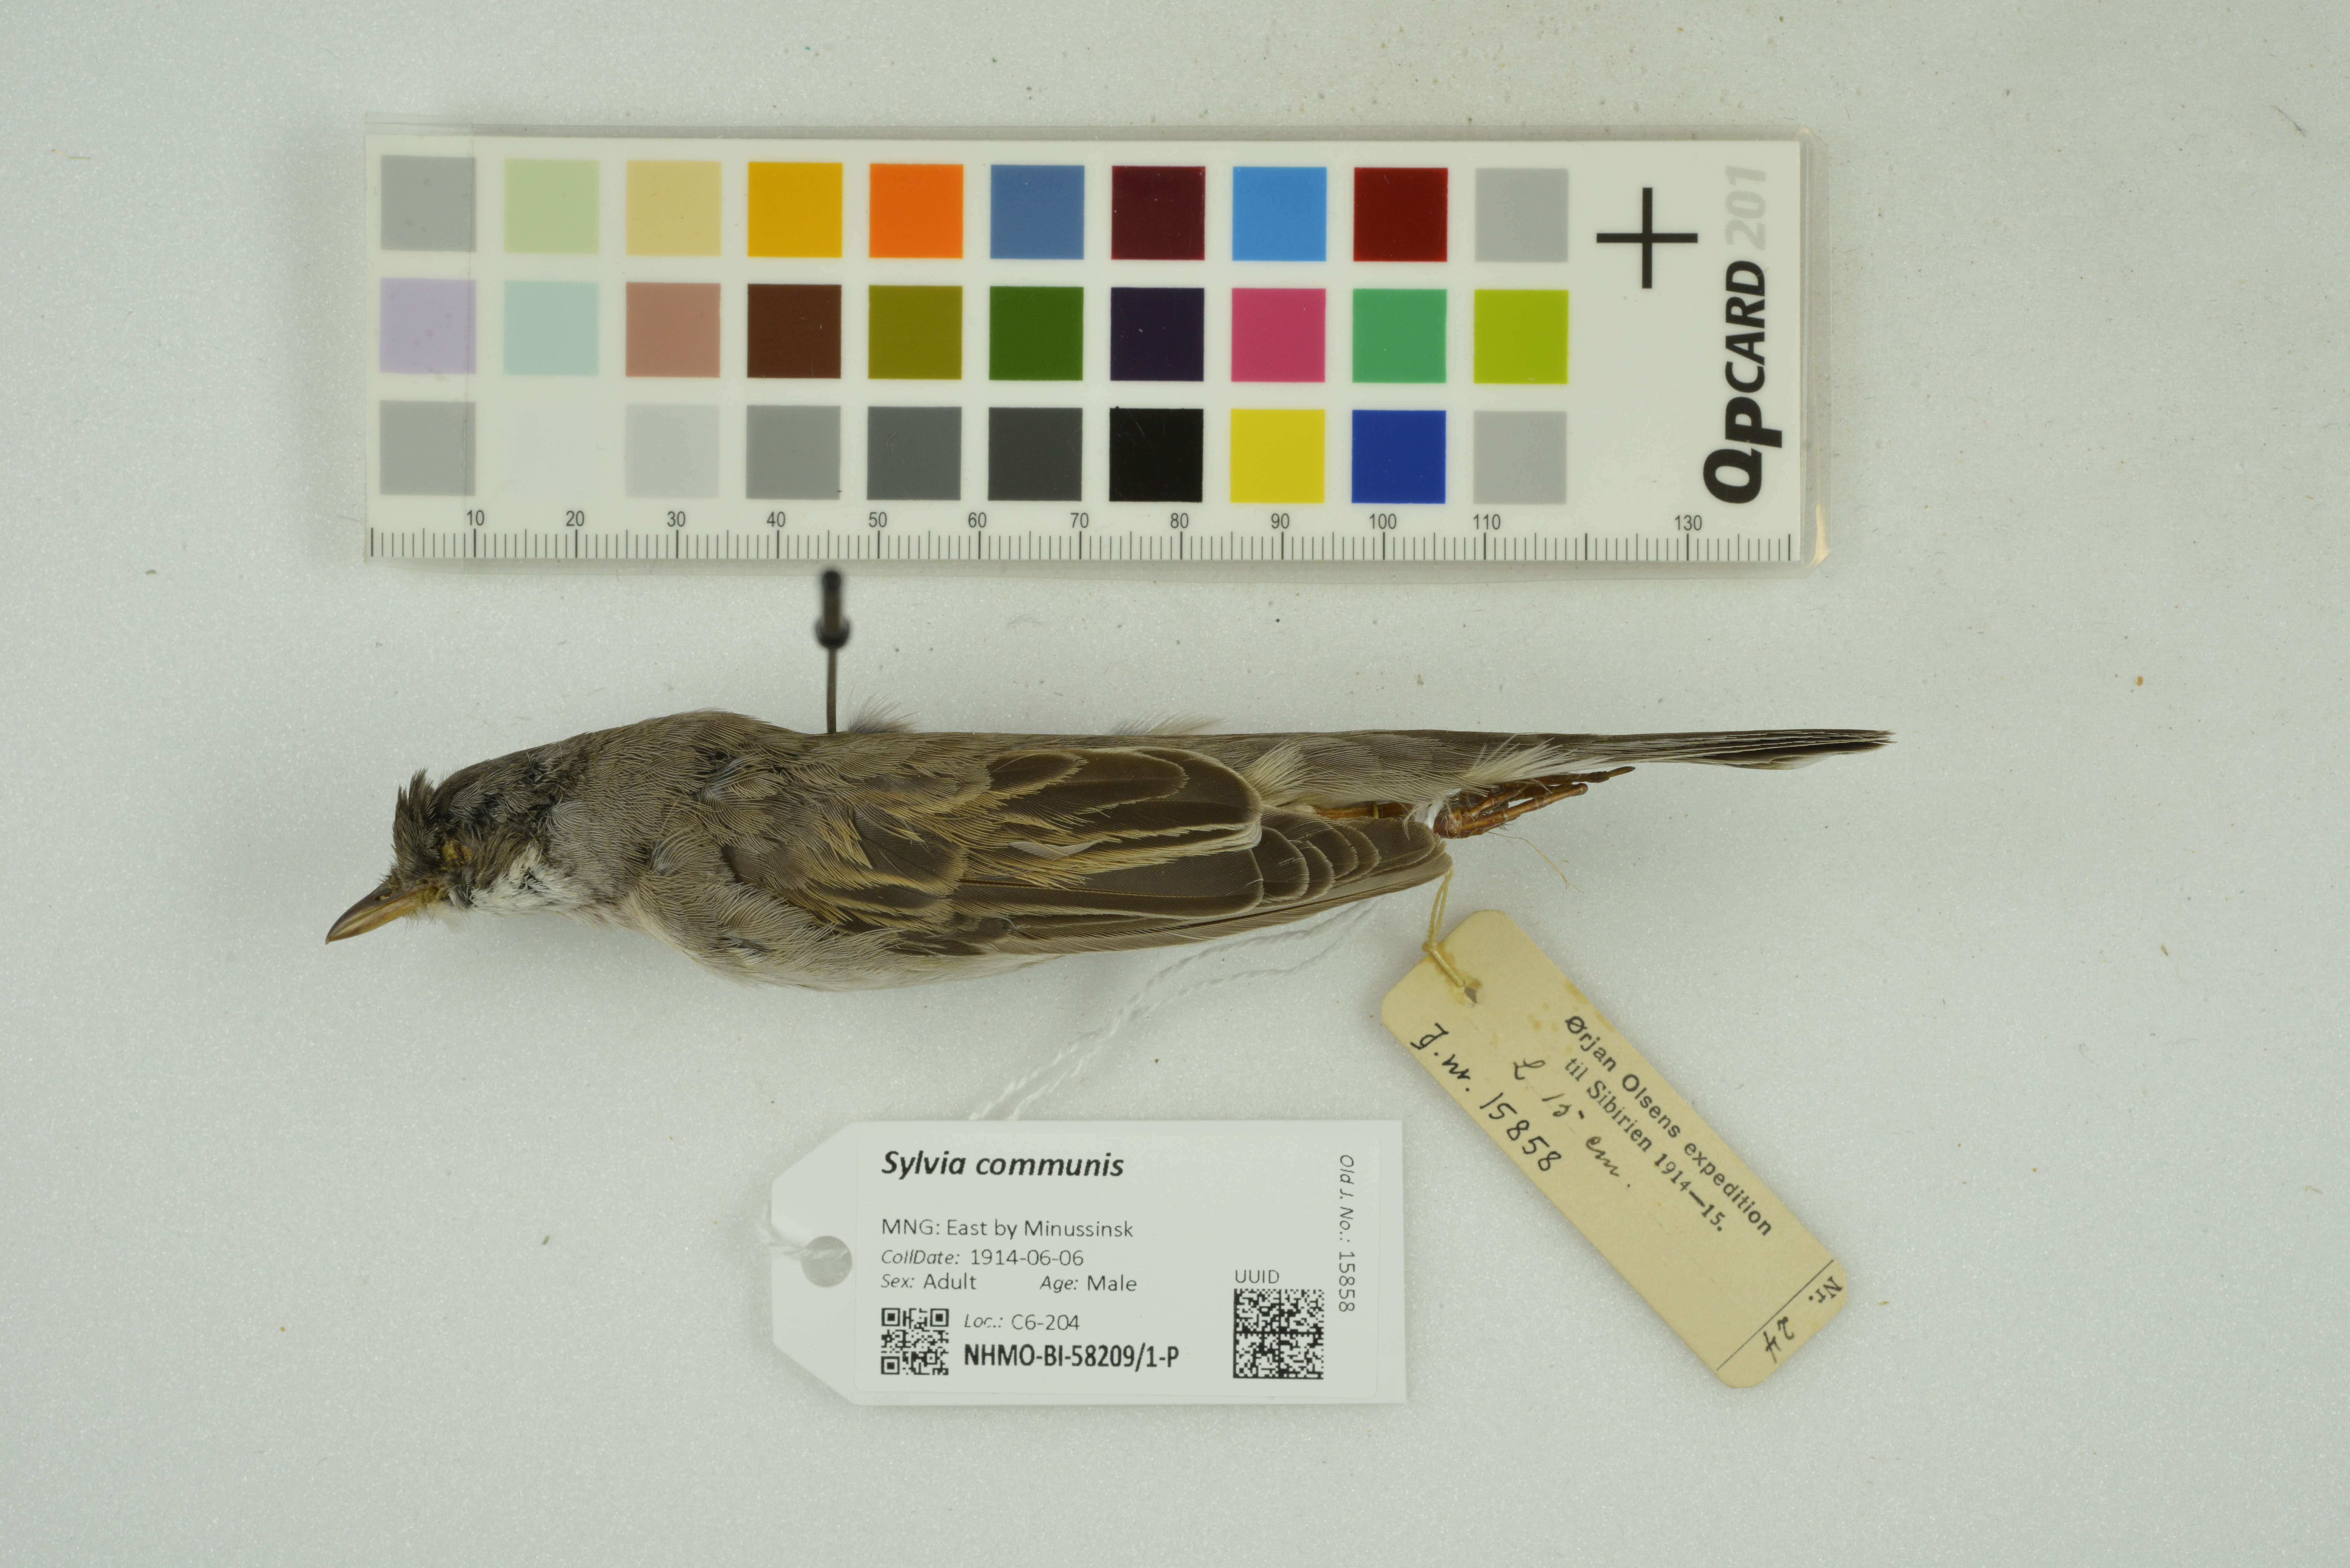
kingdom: Animalia
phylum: Chordata
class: Aves
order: Passeriformes
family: Sylviidae
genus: Sylvia
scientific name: Sylvia communis
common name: Common whitethroat
